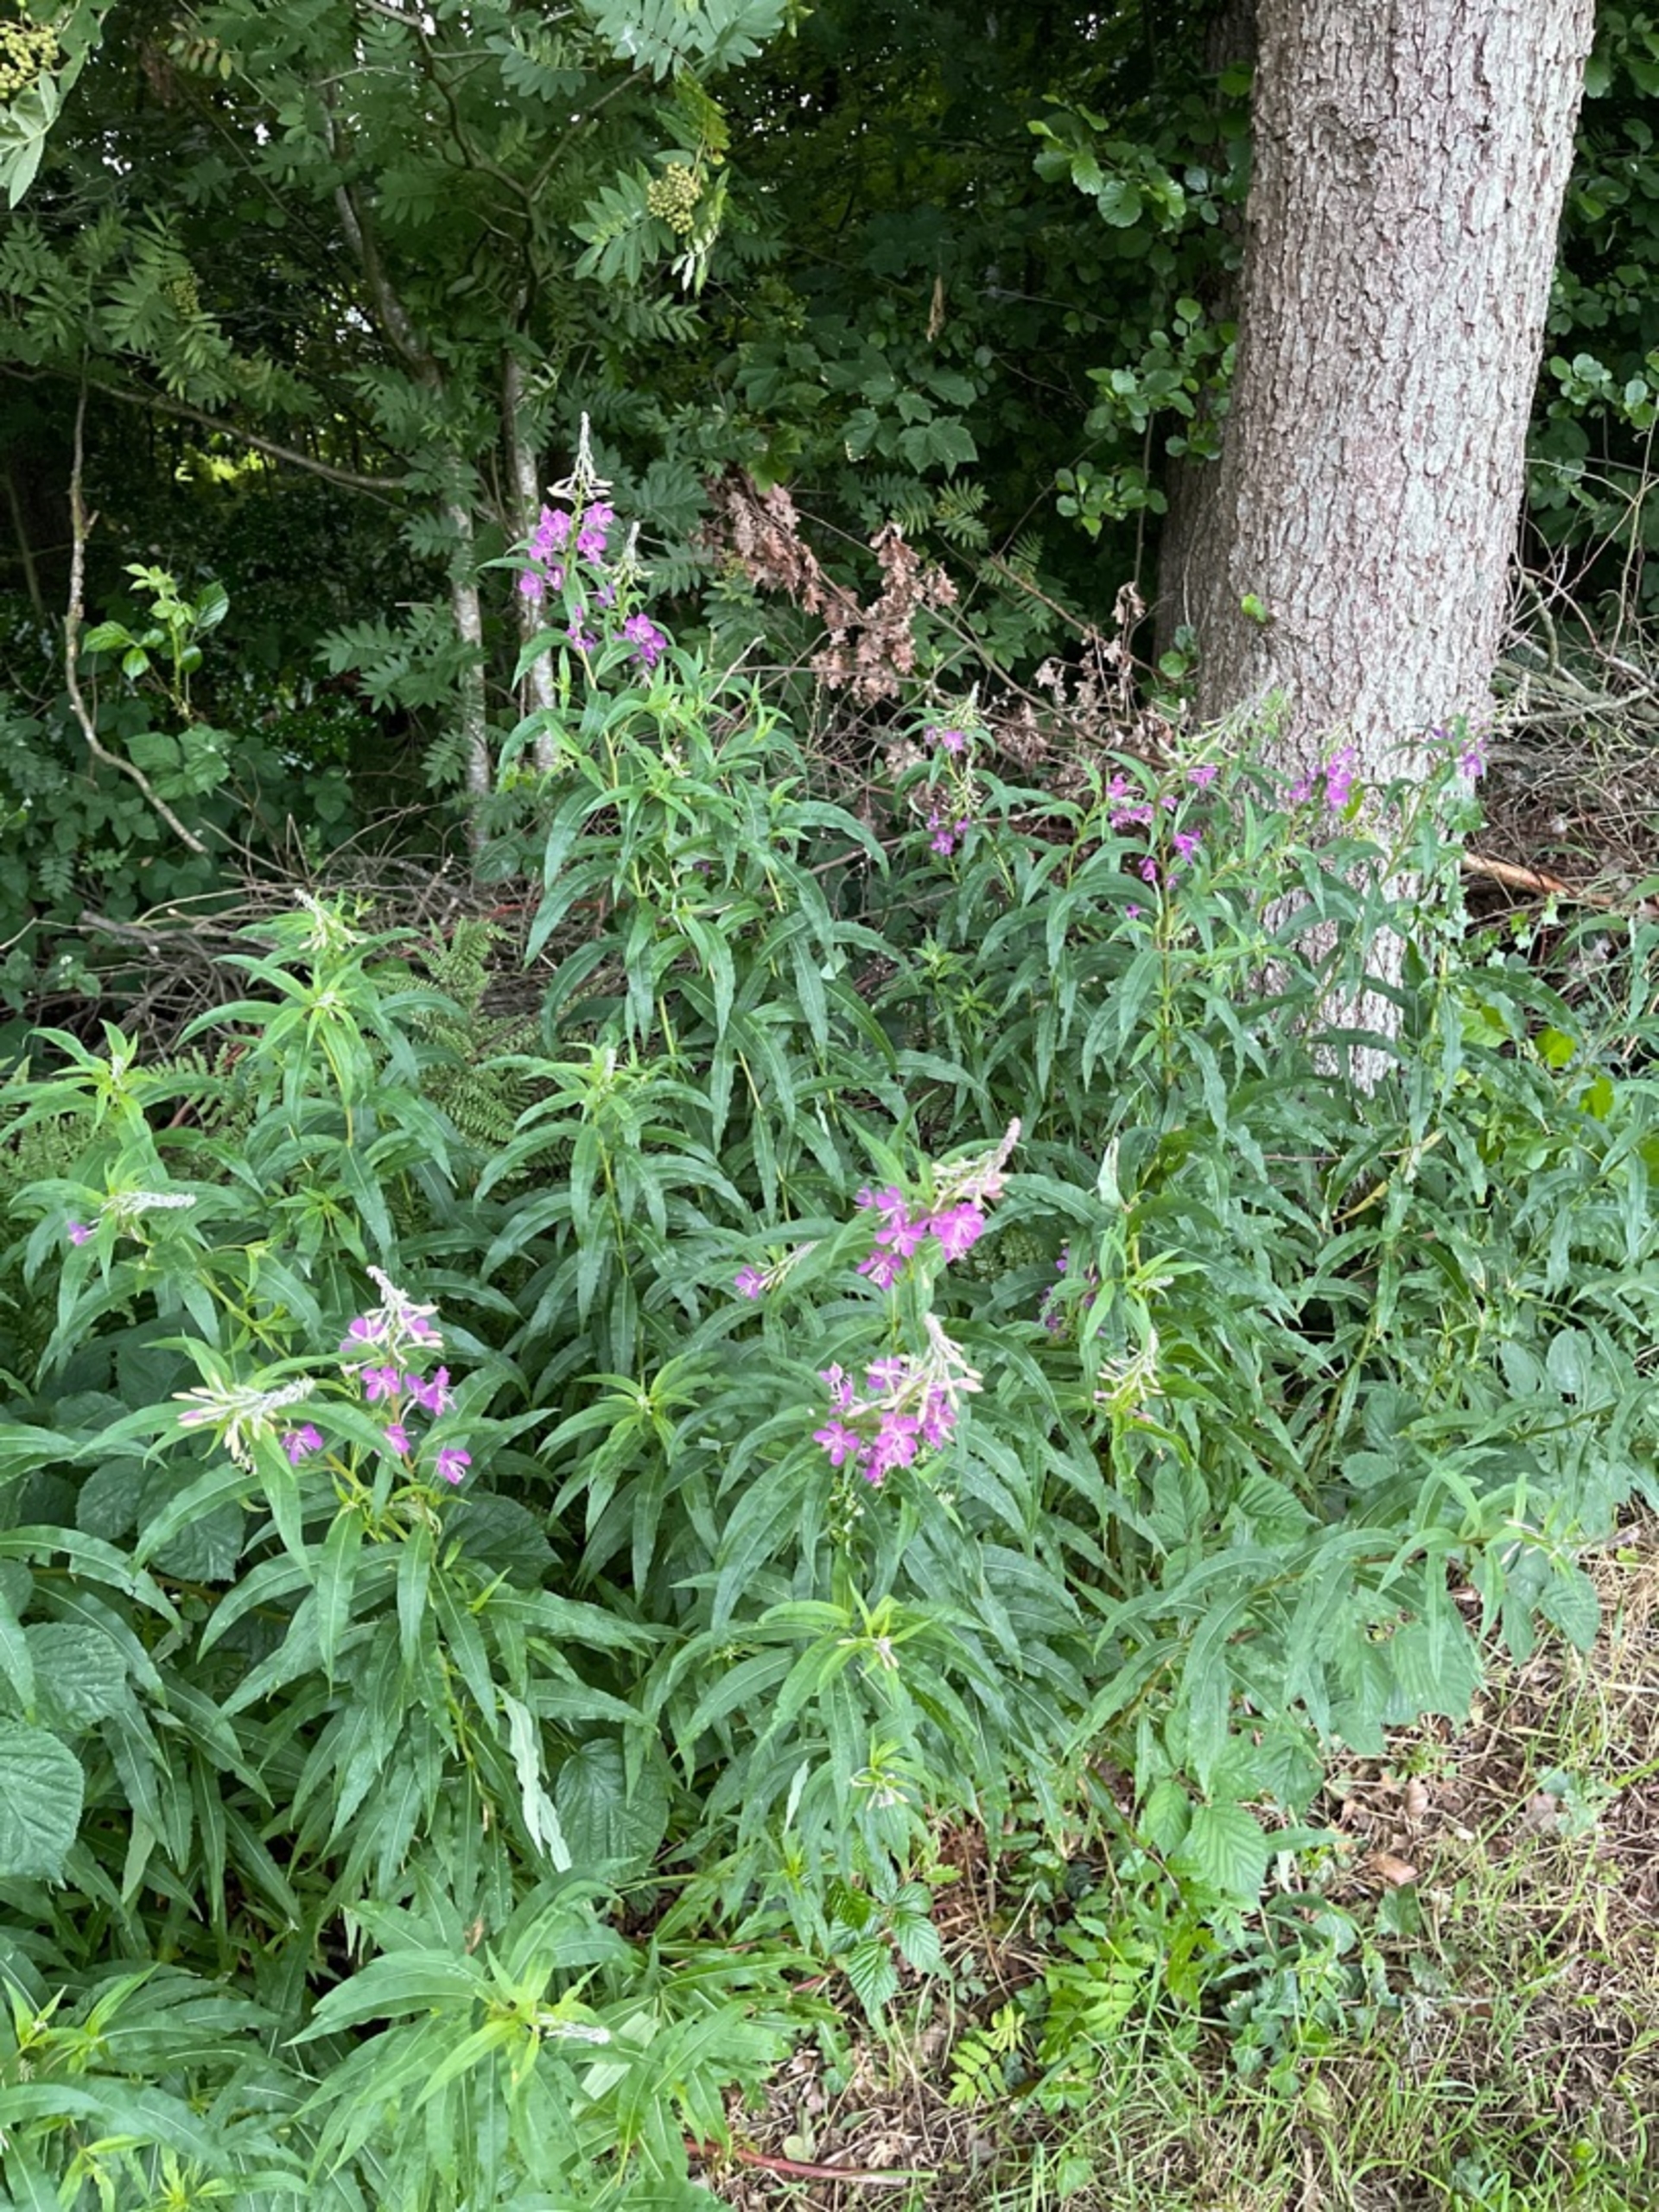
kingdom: Plantae
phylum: Tracheophyta
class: Magnoliopsida
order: Myrtales
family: Onagraceae
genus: Chamaenerion
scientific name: Chamaenerion angustifolium
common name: Gederams
